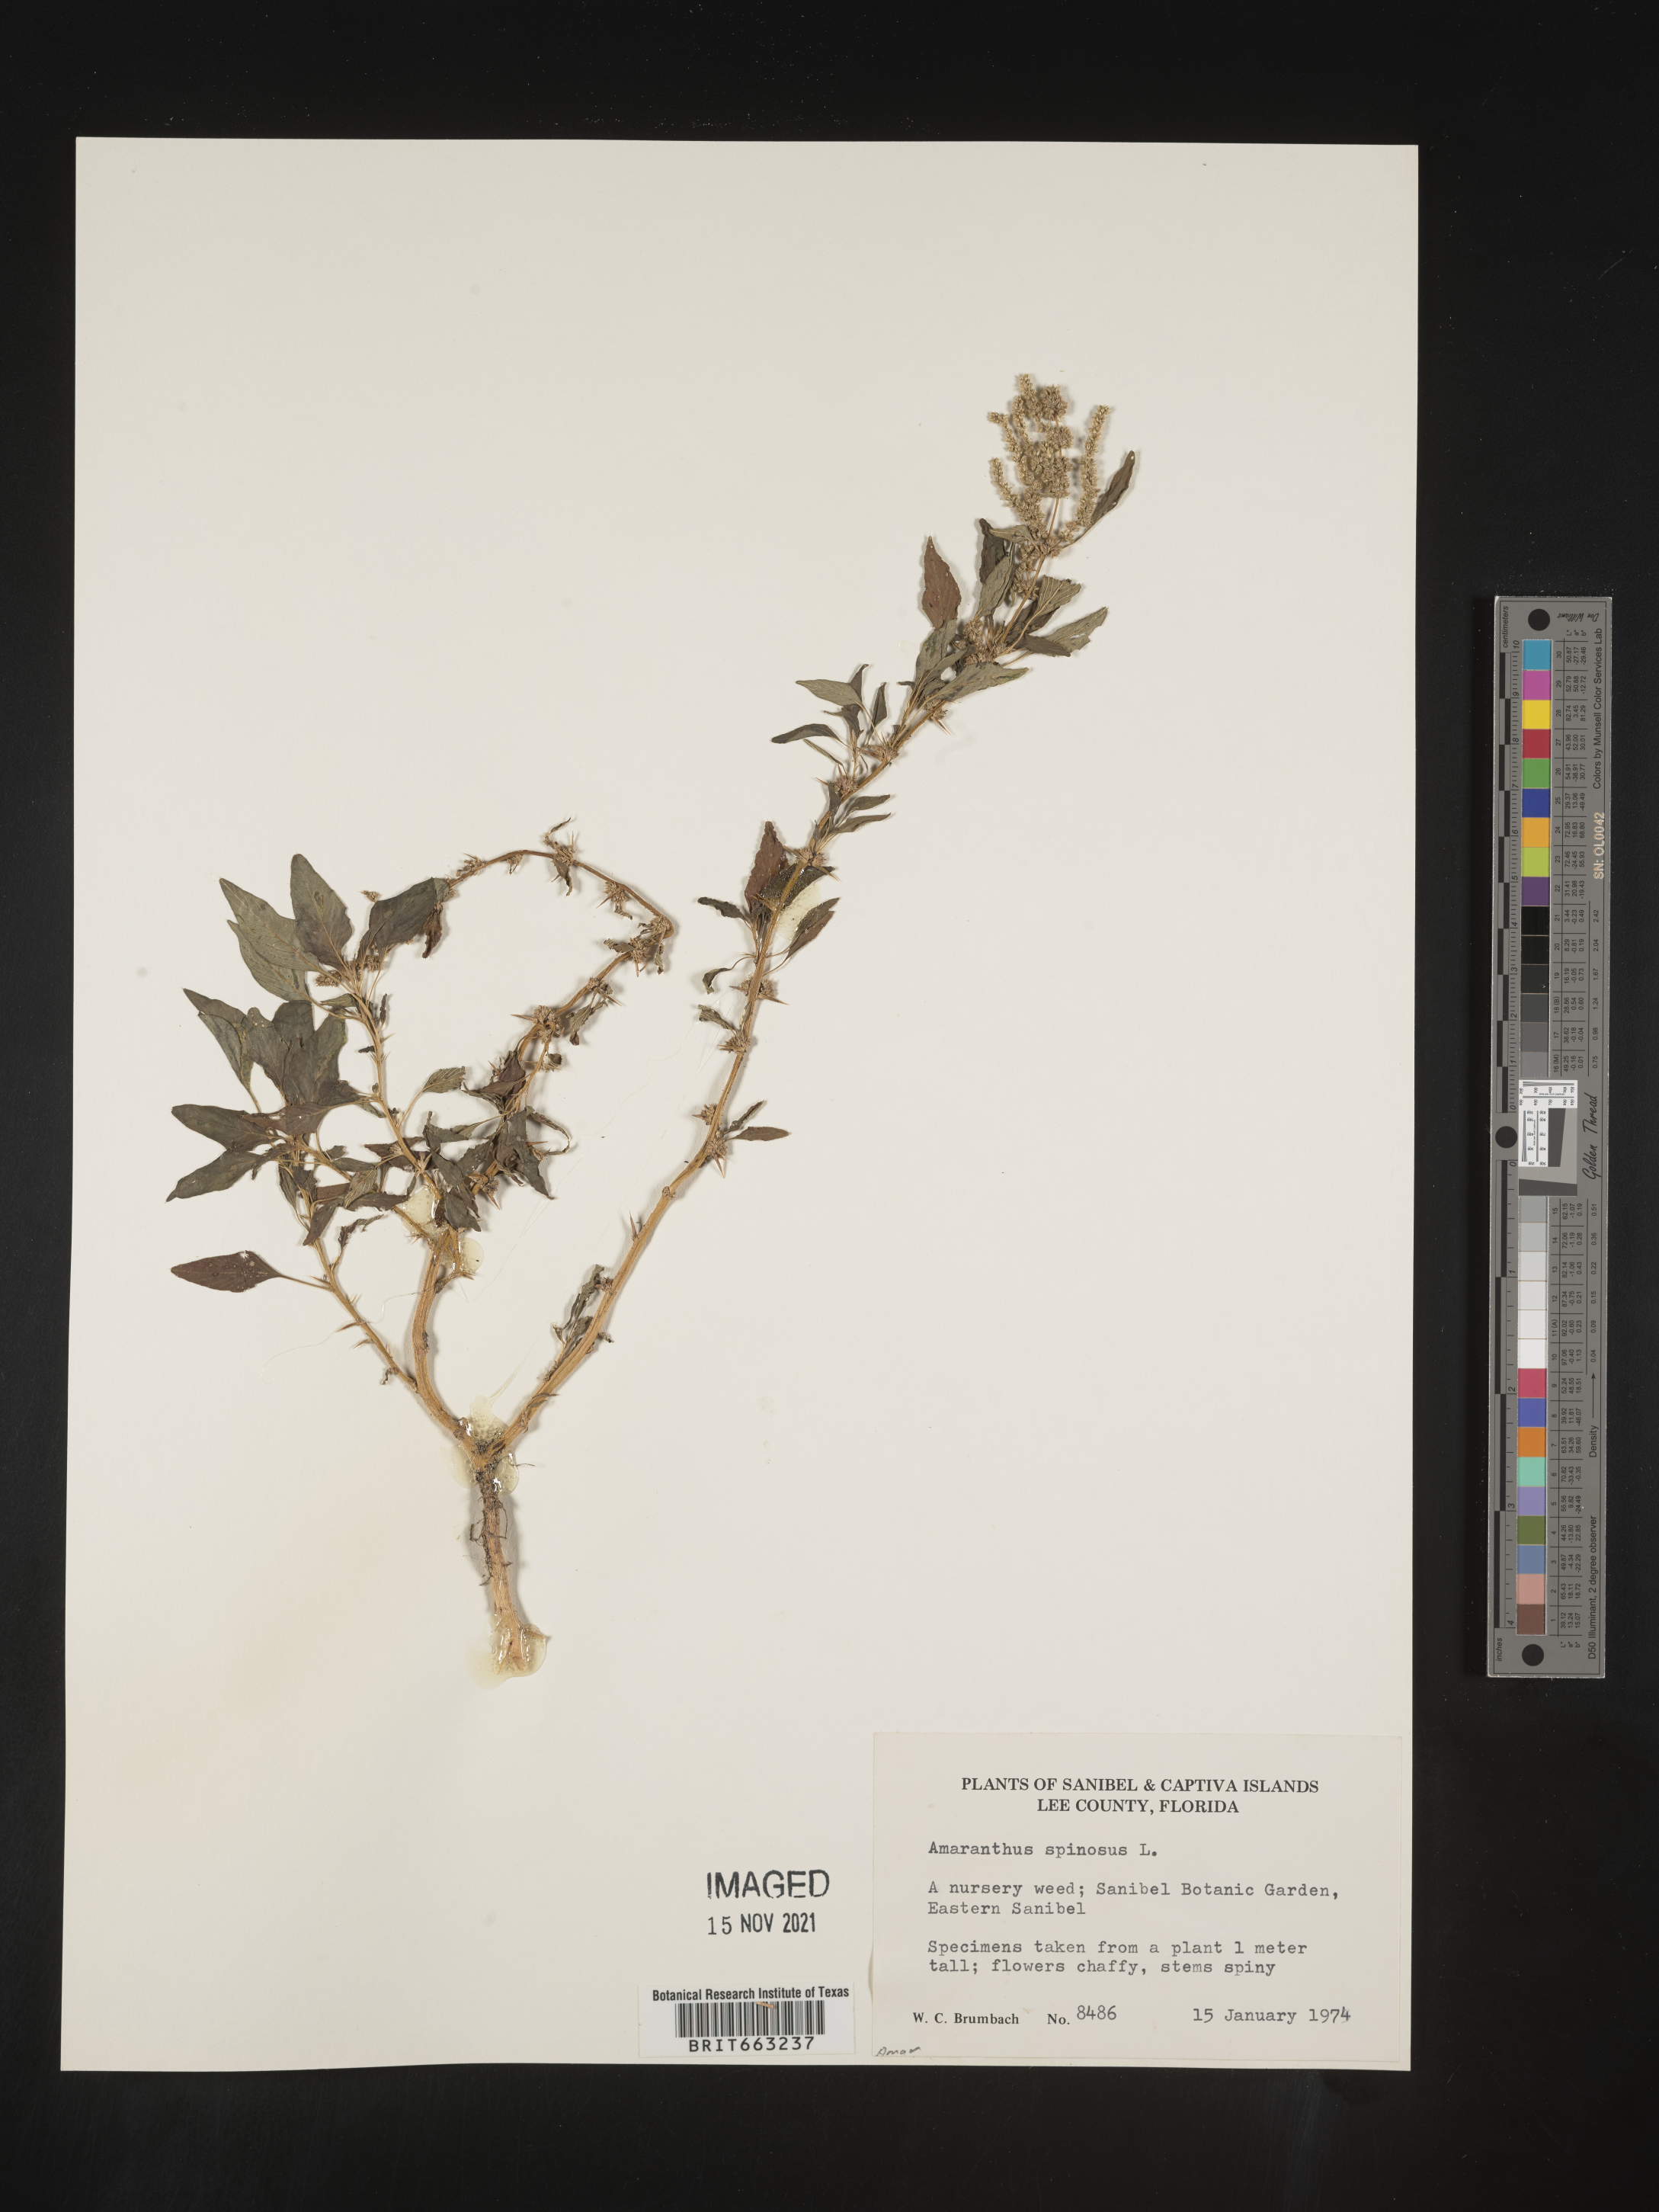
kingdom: Plantae
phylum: Tracheophyta
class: Magnoliopsida
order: Caryophyllales
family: Amaranthaceae
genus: Amaranthus
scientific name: Amaranthus spinosus
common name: Spiny amaranth
